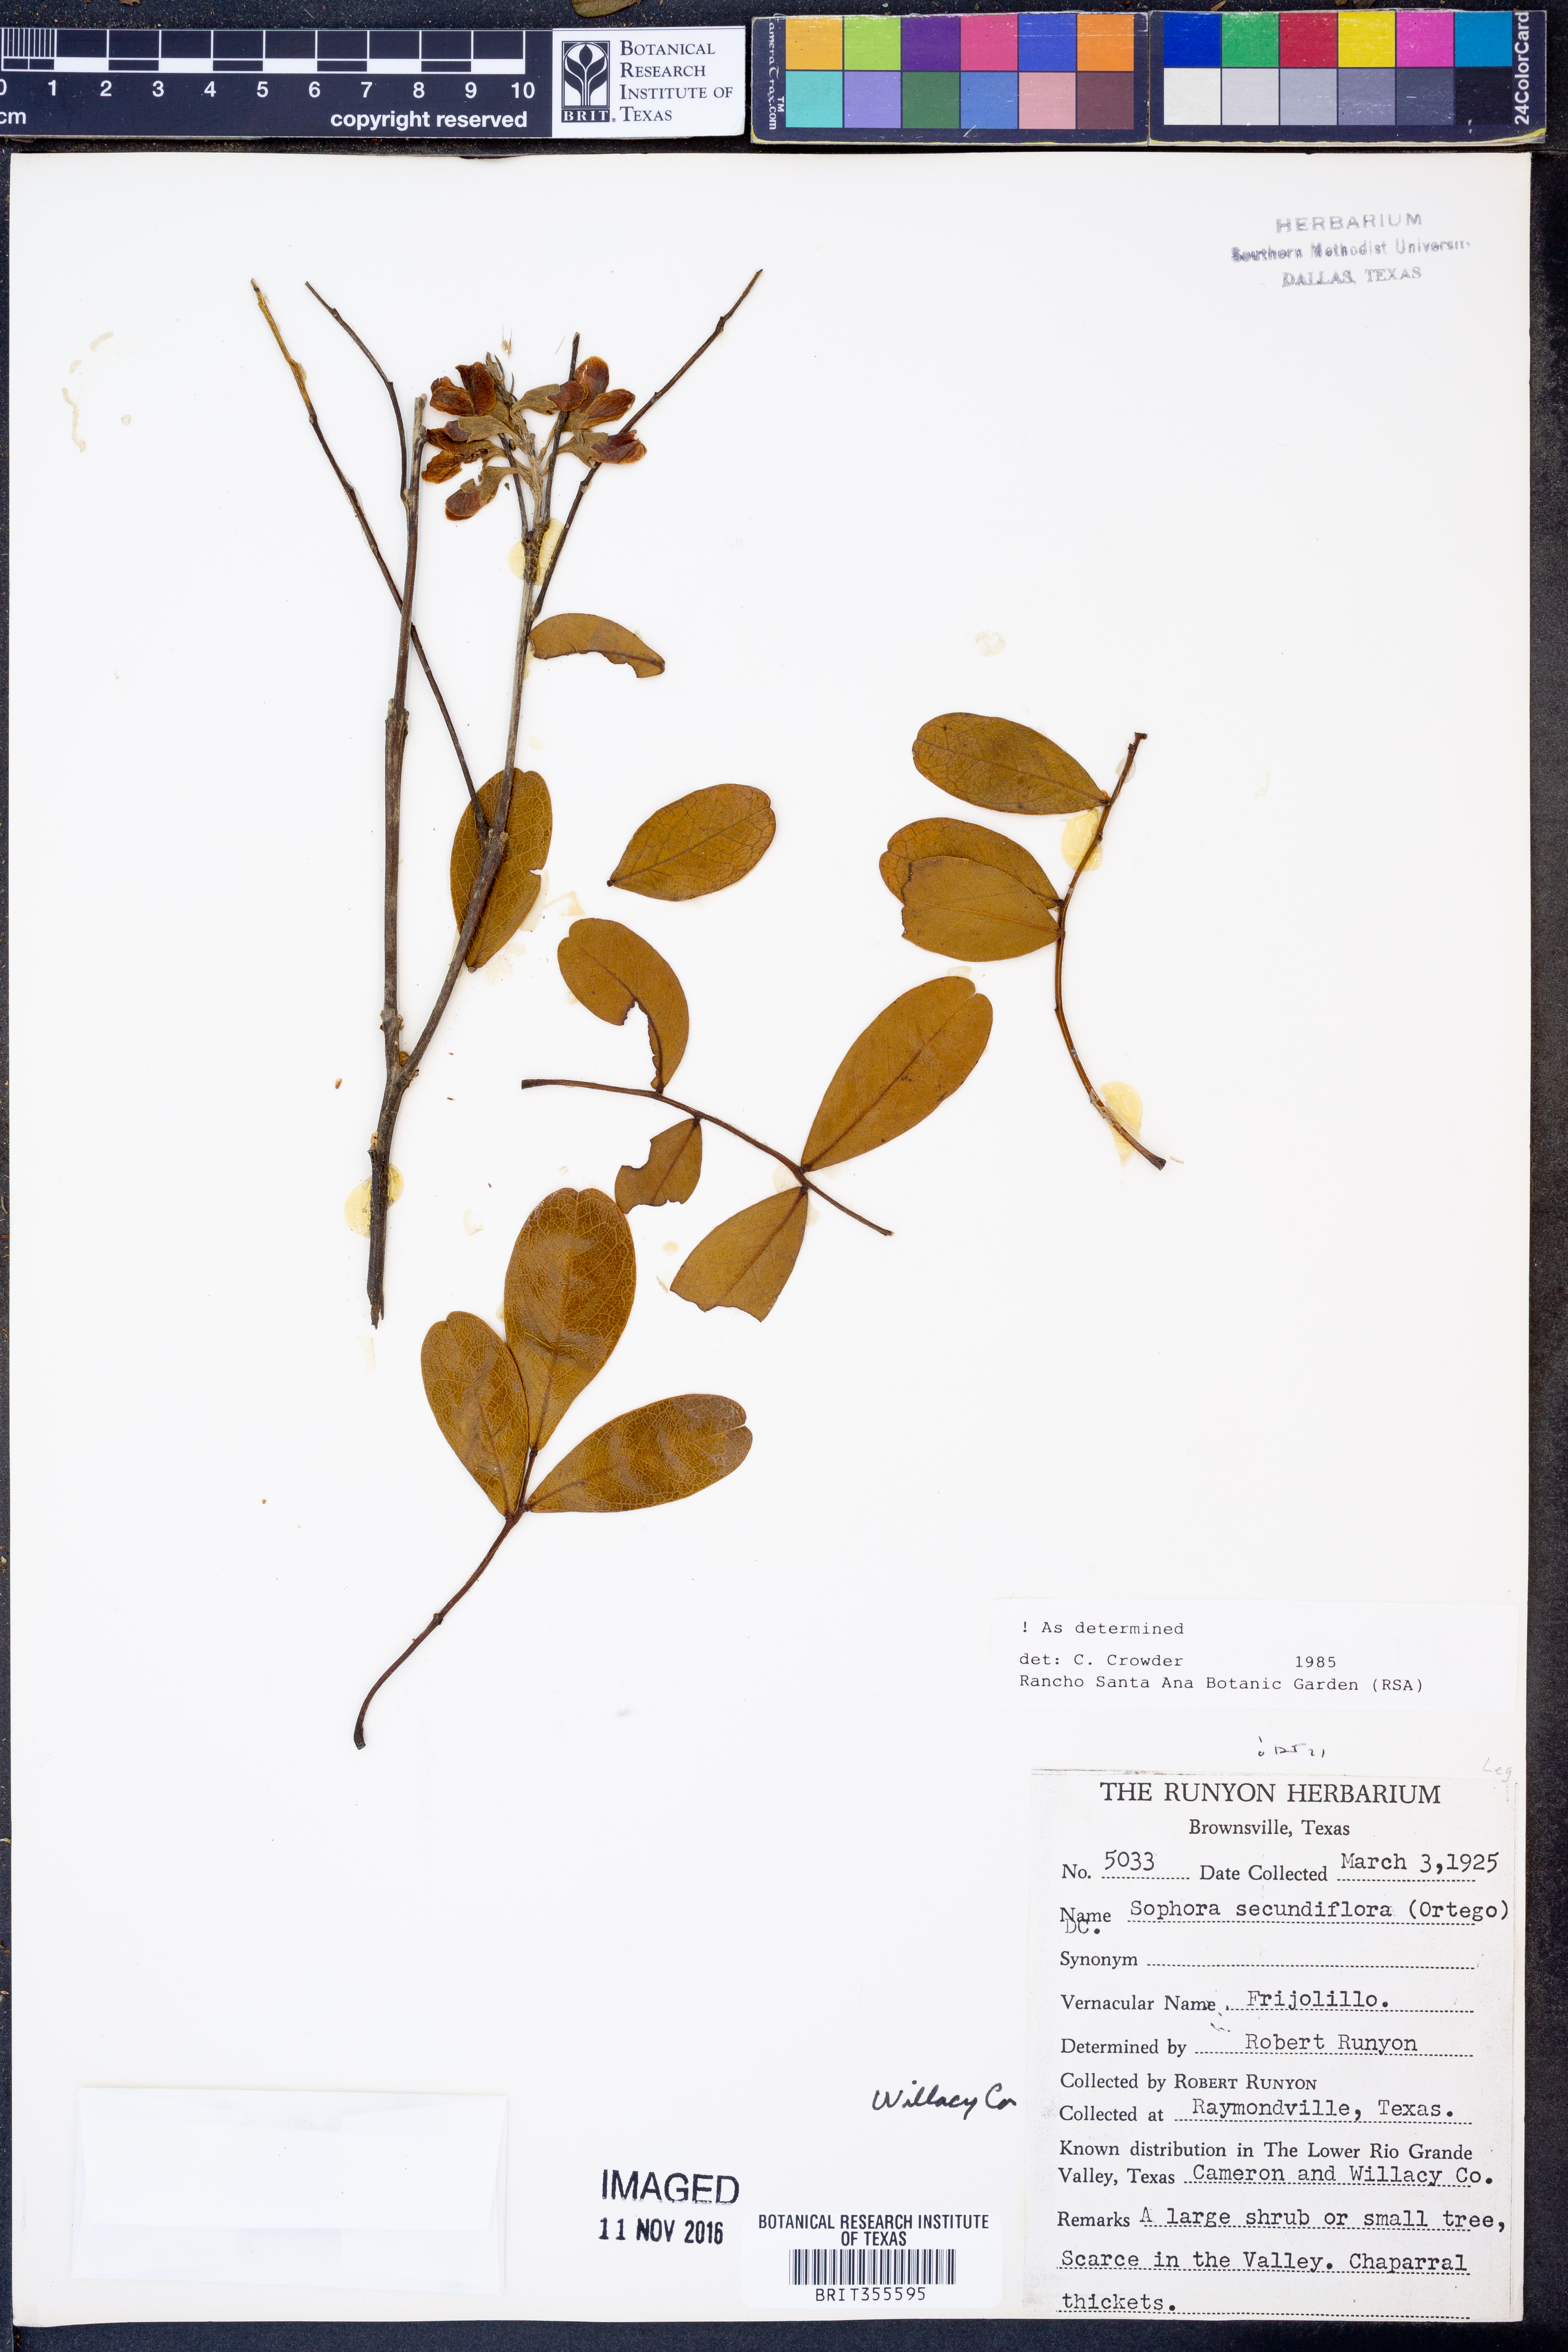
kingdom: Plantae
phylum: Tracheophyta
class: Magnoliopsida
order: Fabales
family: Fabaceae
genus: Dermatophyllum
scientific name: Dermatophyllum secundiflorum
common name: Texas-mountain-laurel
